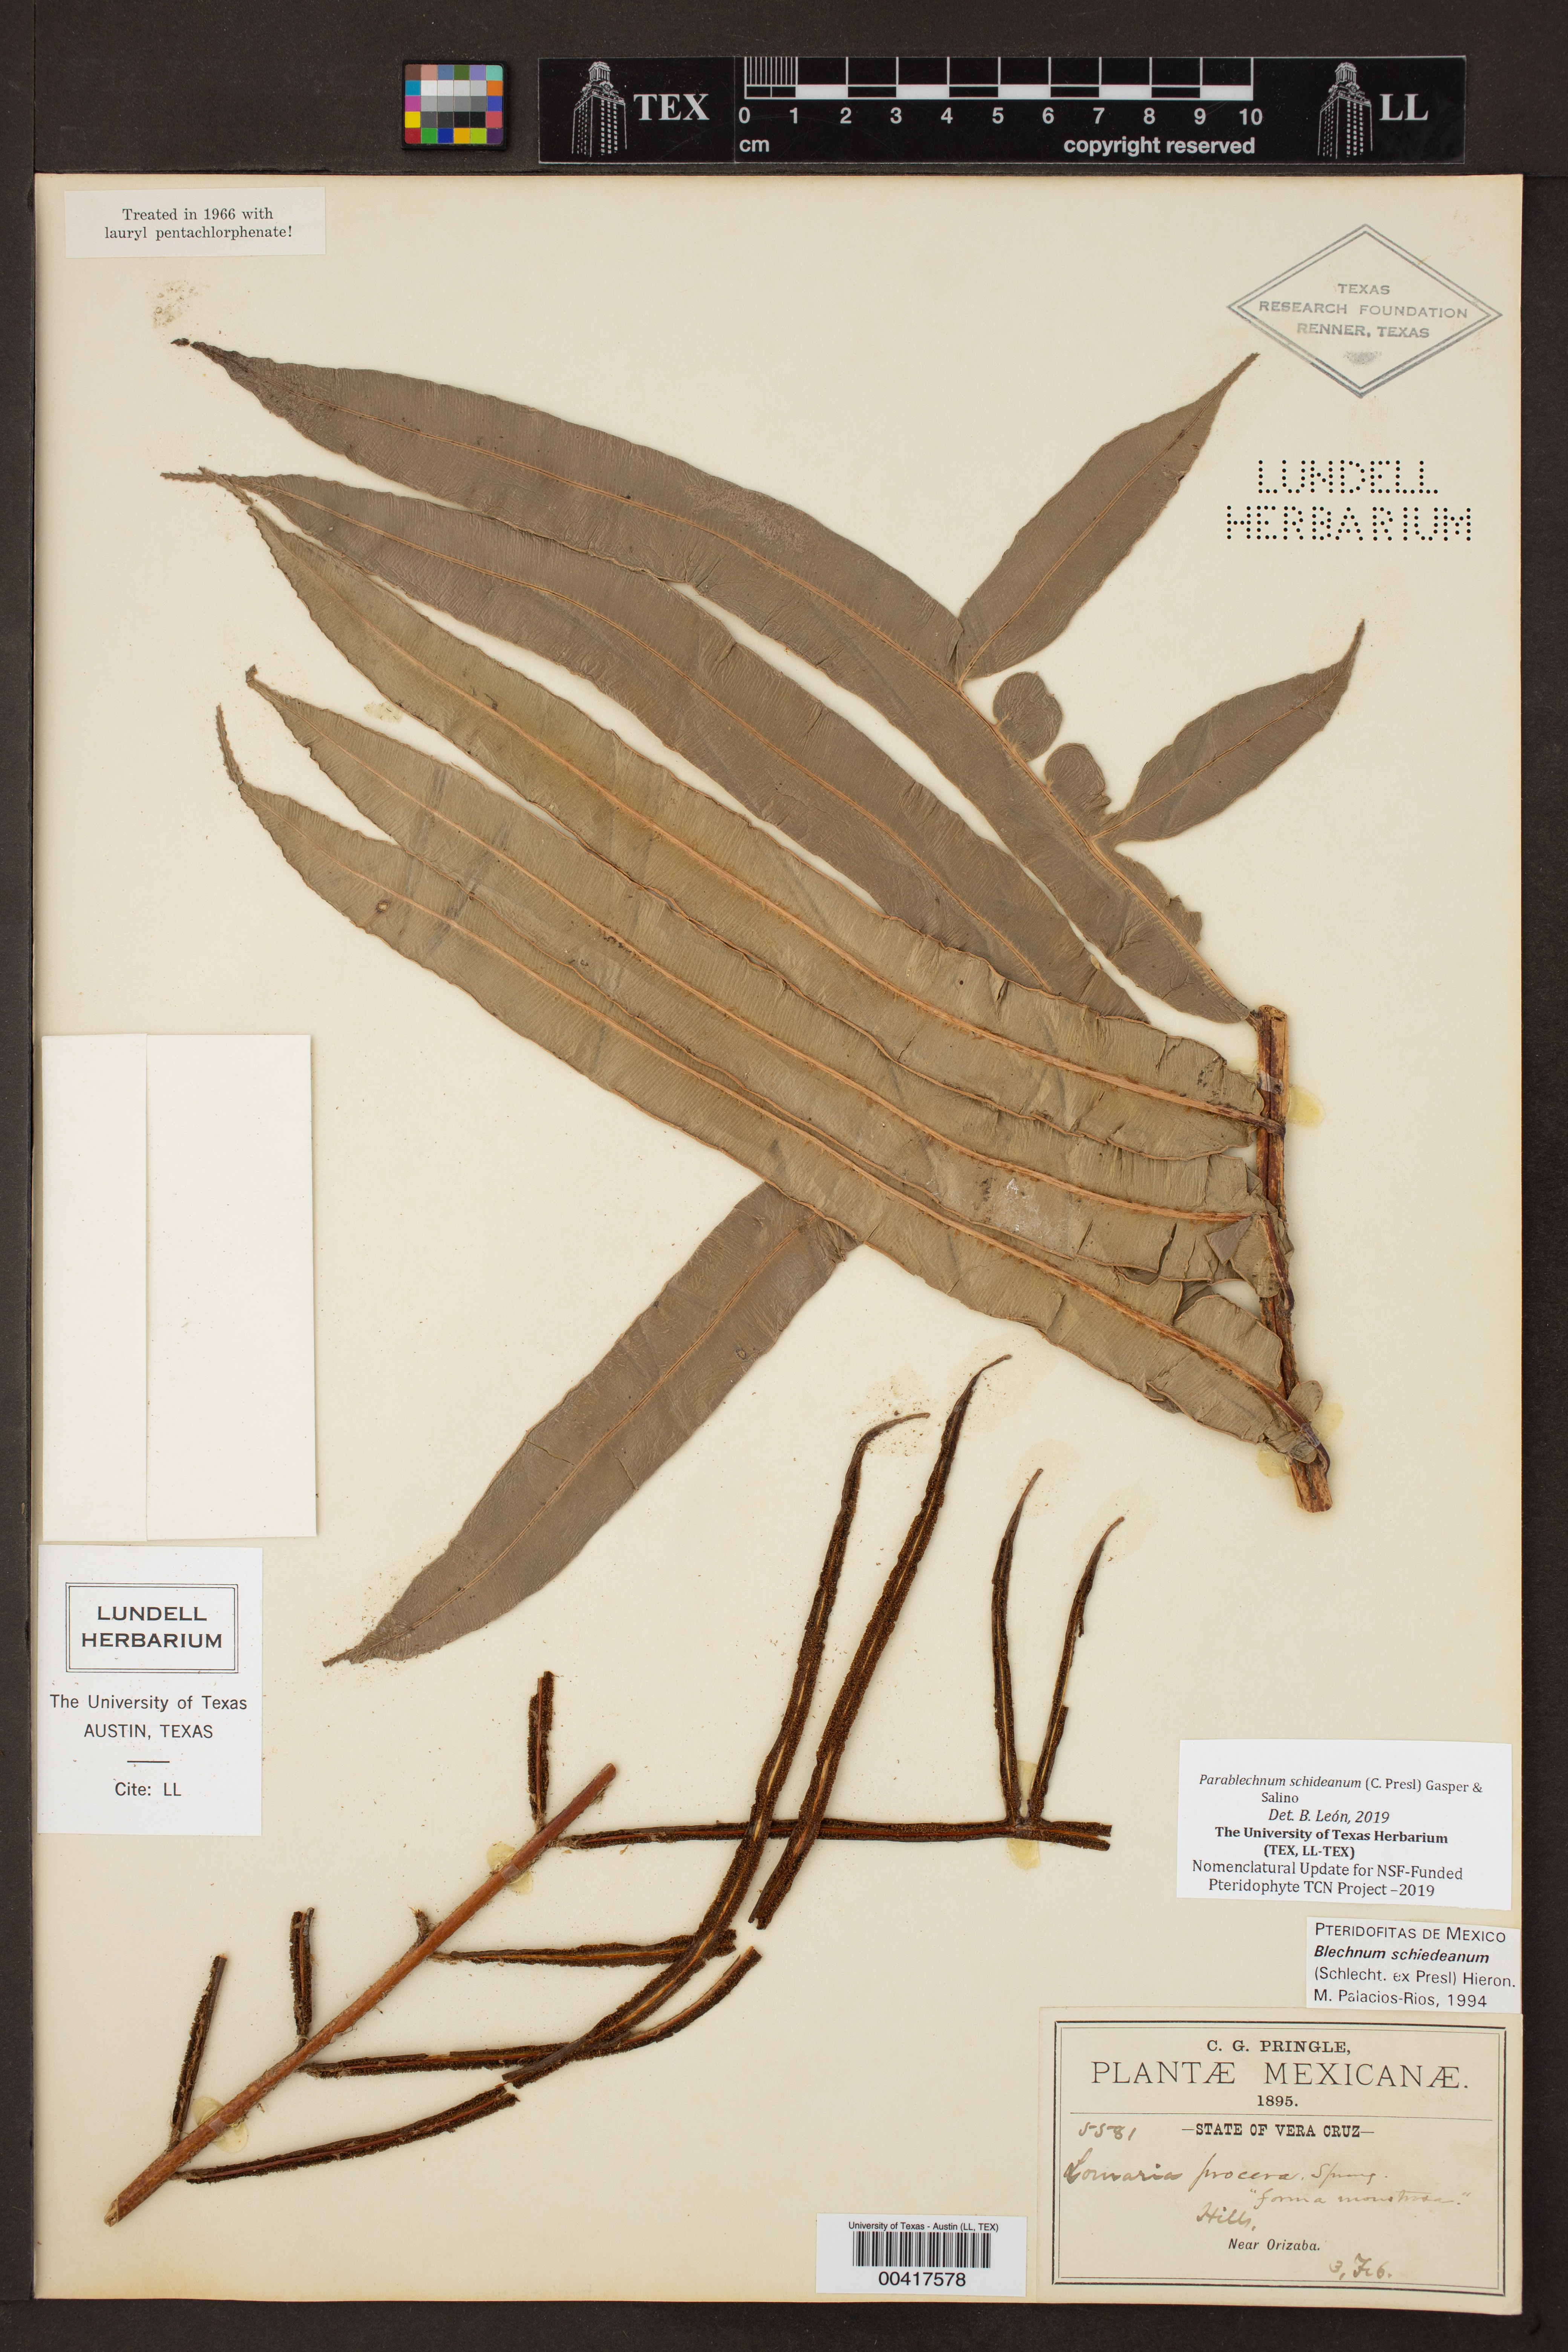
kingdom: Plantae
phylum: Tracheophyta
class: Polypodiopsida
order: Polypodiales
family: Blechnaceae
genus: Parablechnum
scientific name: Parablechnum schiedeanum
